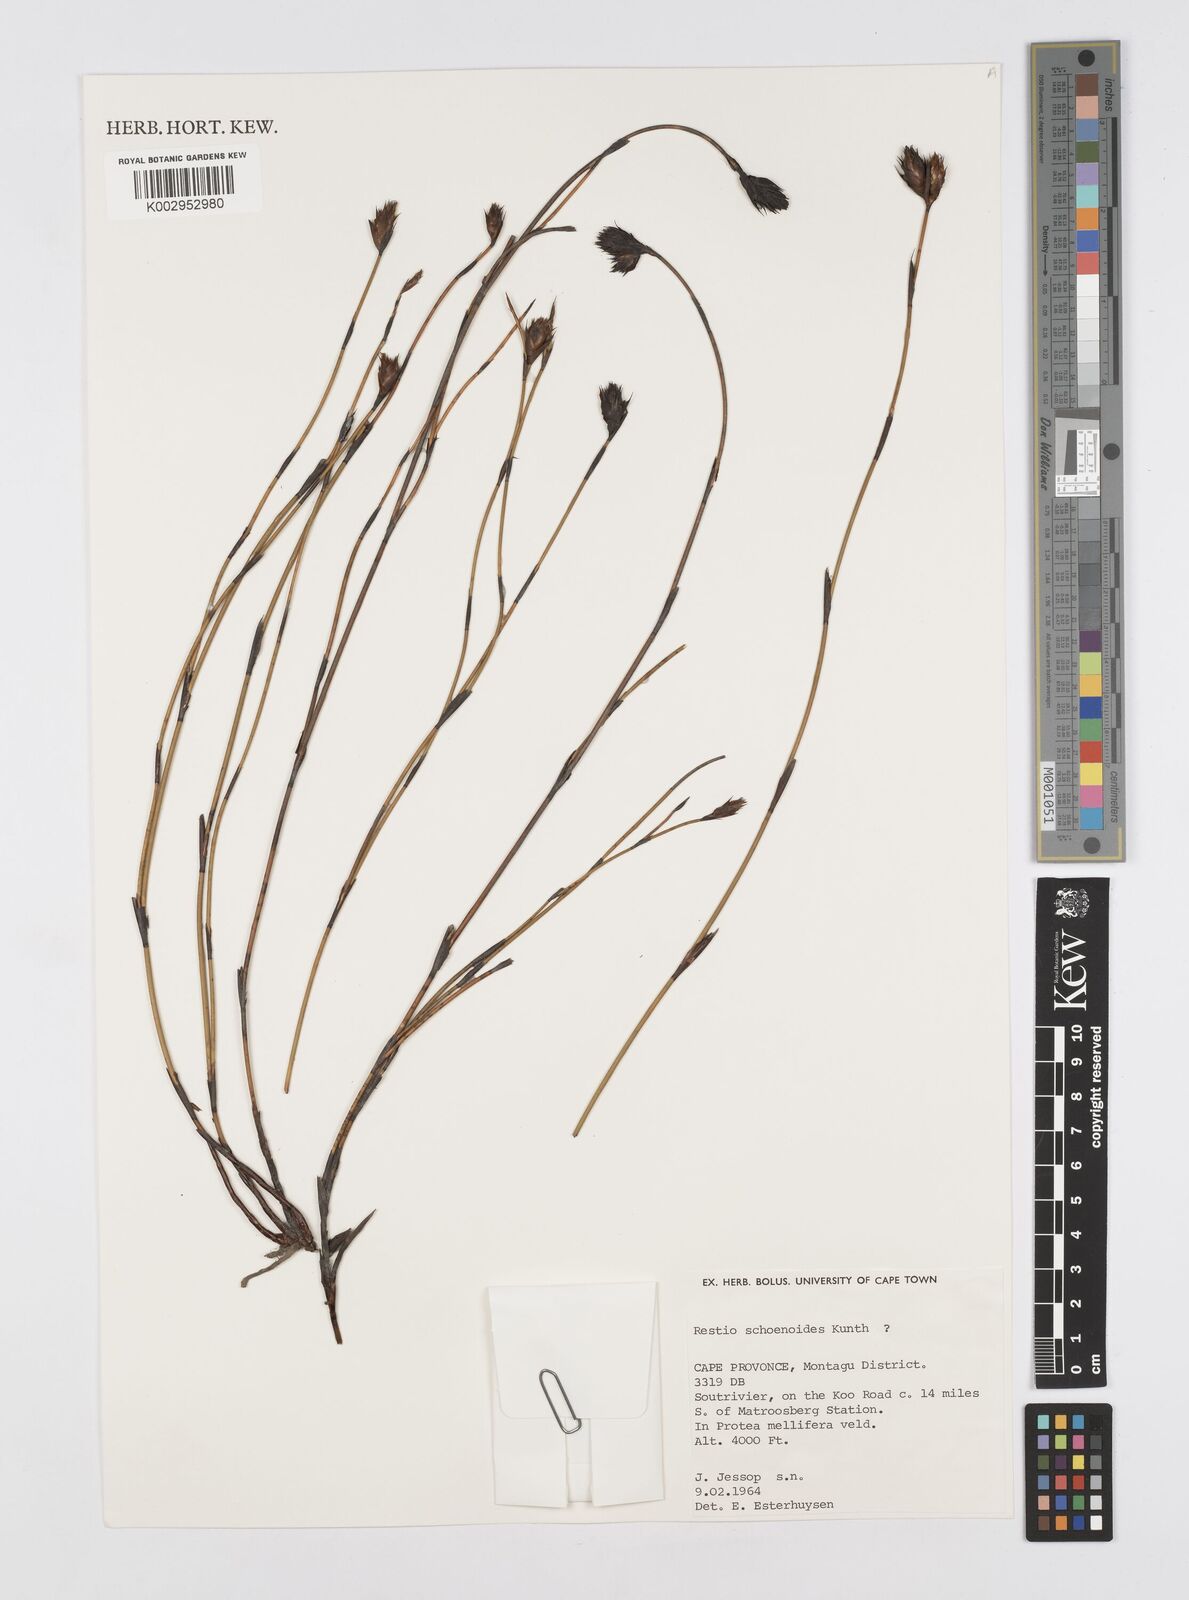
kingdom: Plantae
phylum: Tracheophyta
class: Liliopsida
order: Poales
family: Restionaceae
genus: Restio
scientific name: Restio schoenoides
